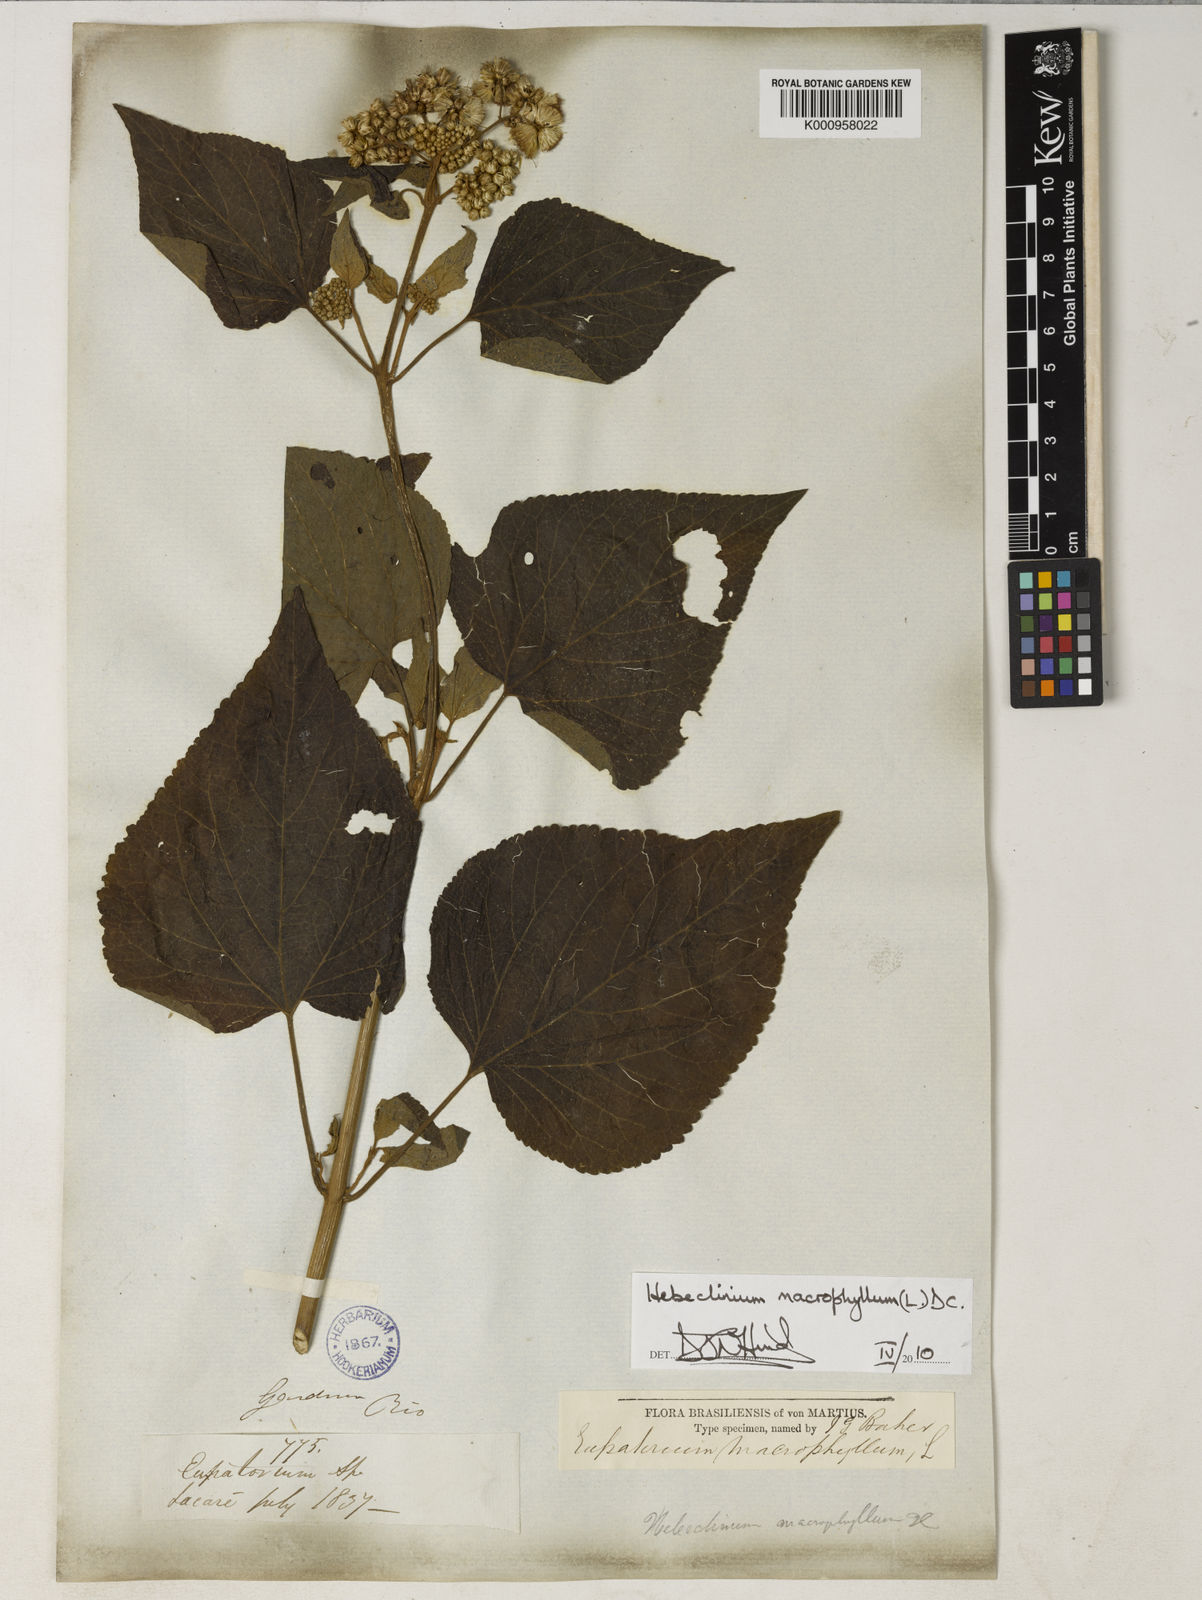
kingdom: Plantae
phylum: Tracheophyta
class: Magnoliopsida
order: Asterales
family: Asteraceae
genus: Hebeclinium
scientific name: Hebeclinium macrophyllum
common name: Largeleaf thoroughwort
